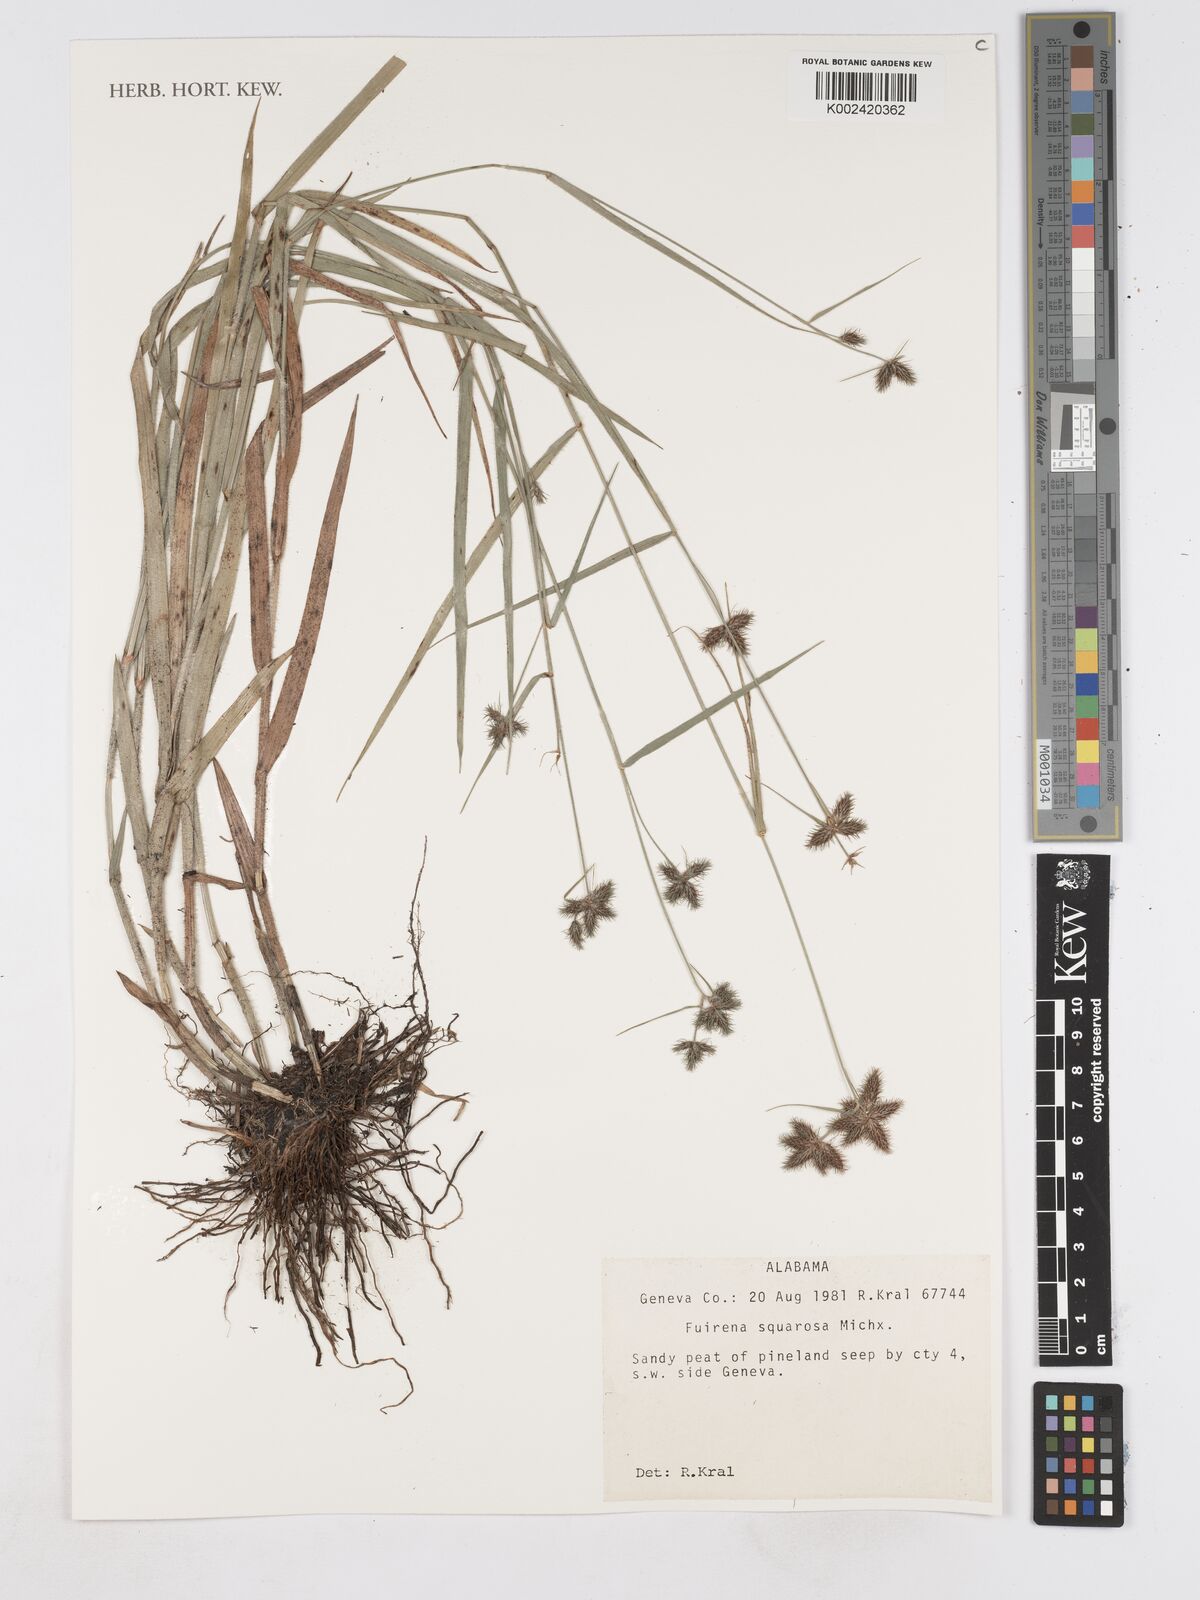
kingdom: Plantae
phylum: Tracheophyta
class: Liliopsida
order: Poales
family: Cyperaceae
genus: Fuirena
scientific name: Fuirena squarrosa
